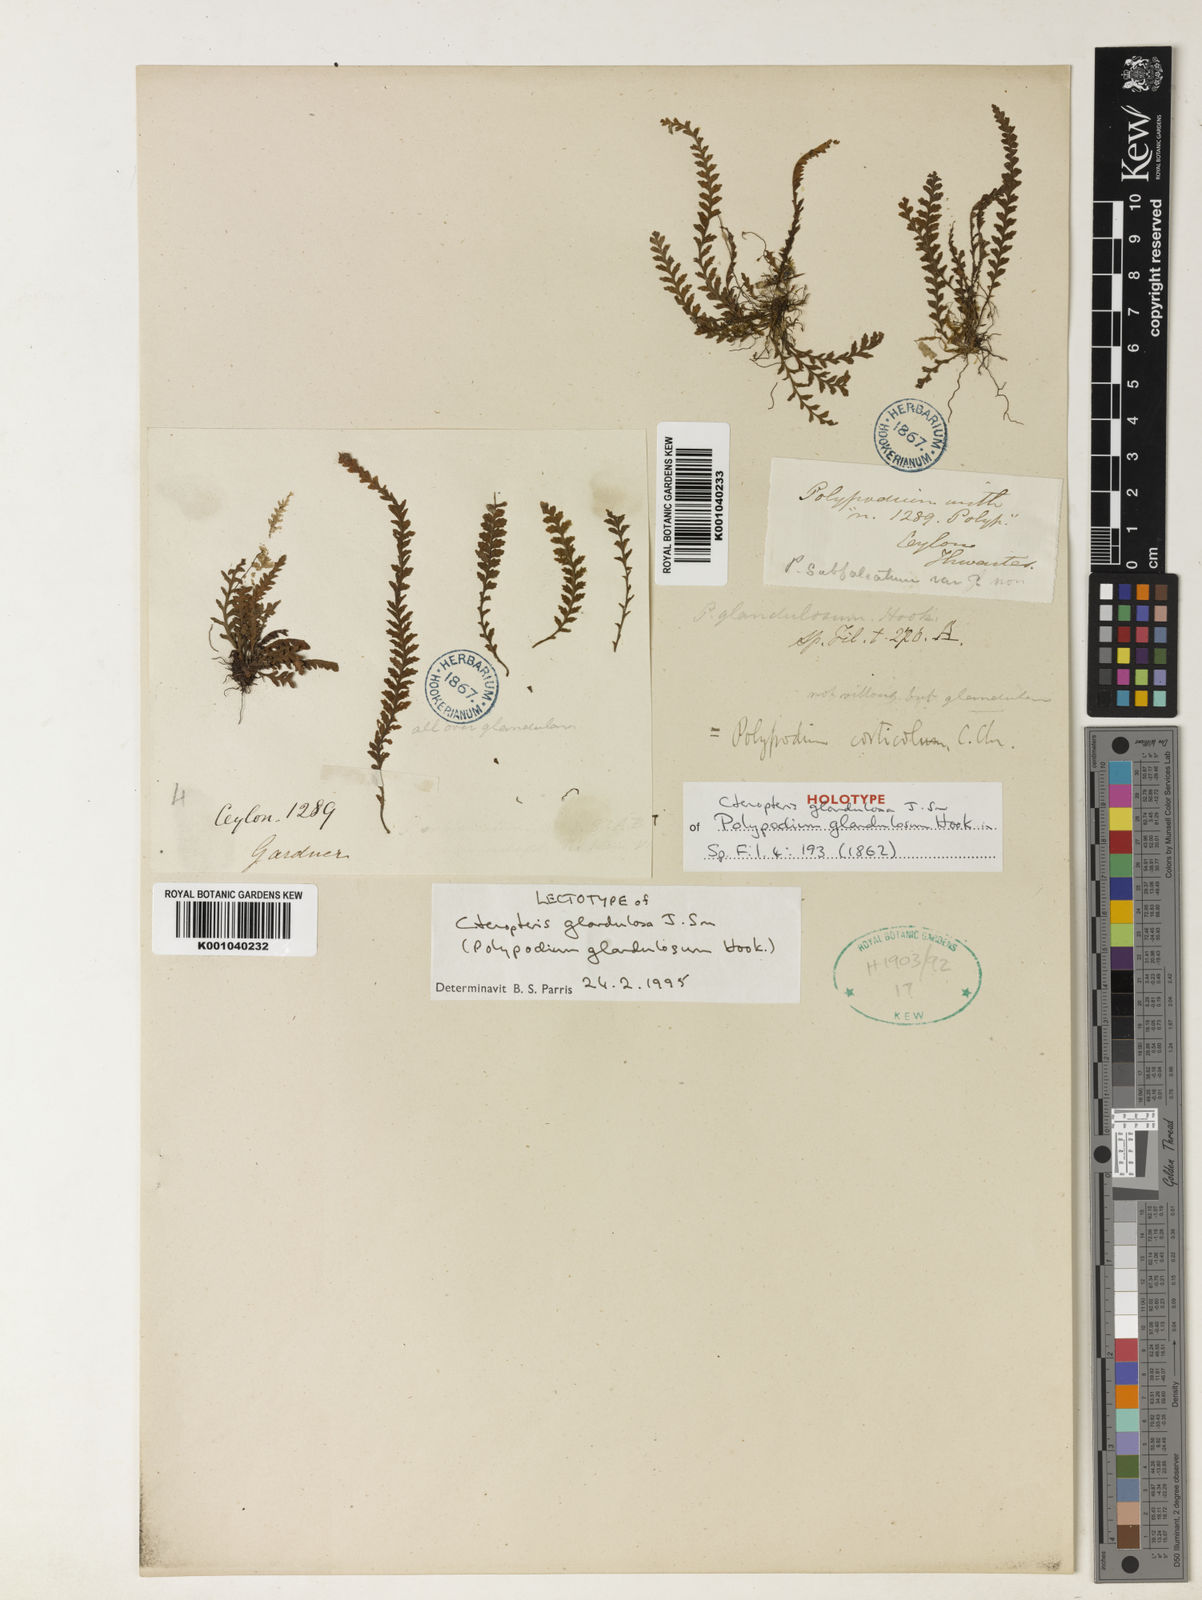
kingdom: Plantae
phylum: Tracheophyta
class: Polypodiopsida
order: Polypodiales
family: Polypodiaceae
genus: Chrysogrammitis
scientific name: Chrysogrammitis glandulosa
